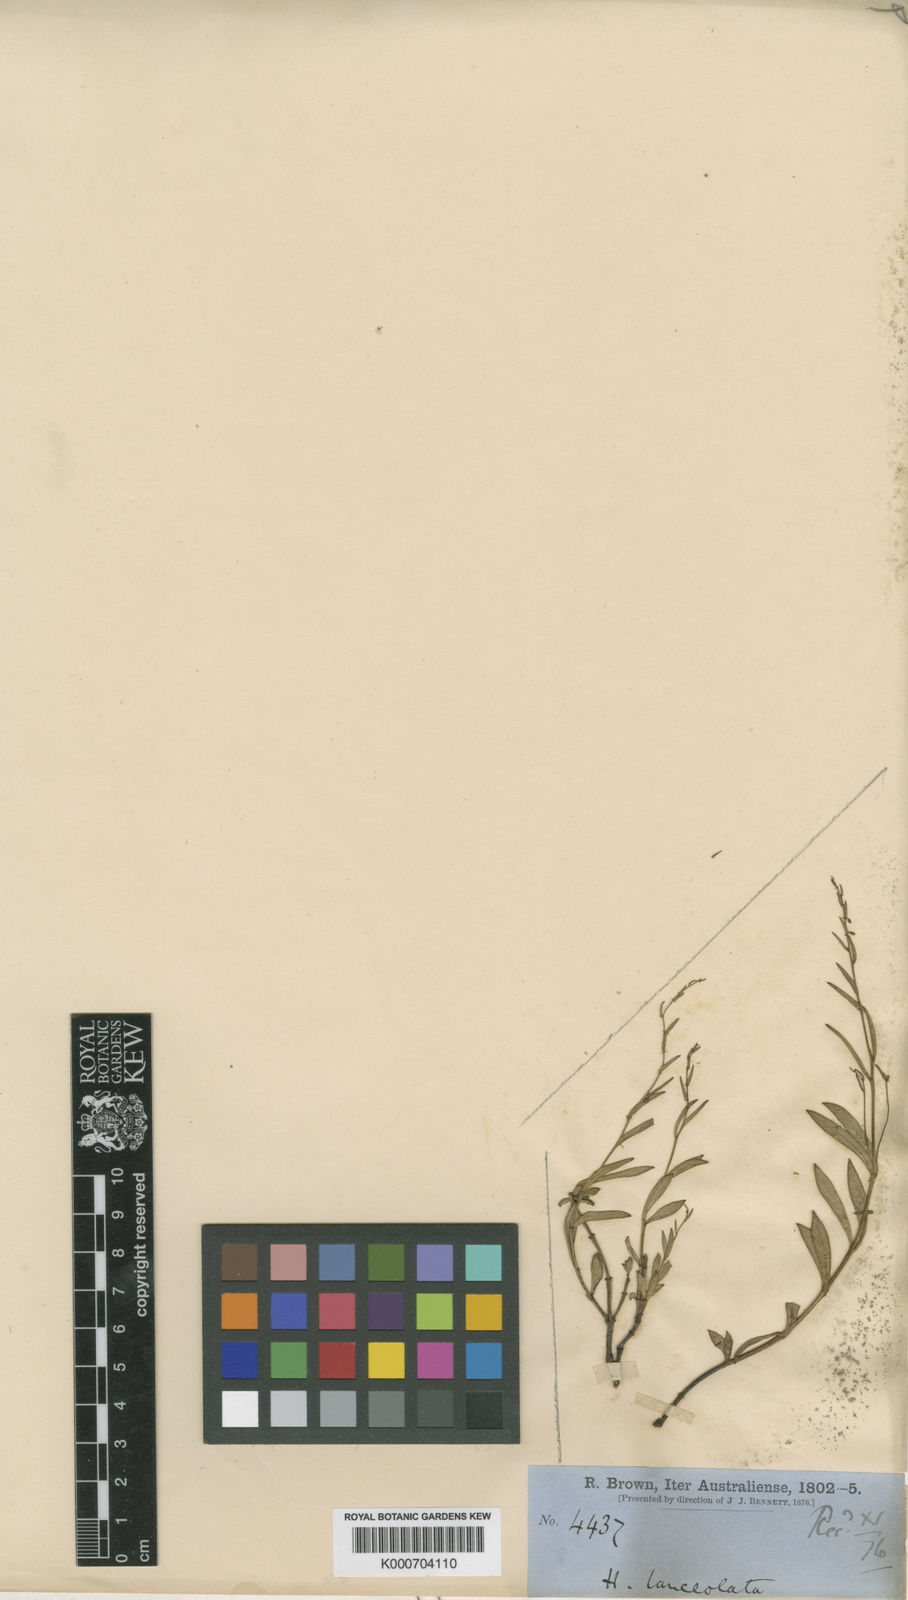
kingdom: Plantae
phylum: Tracheophyta
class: Magnoliopsida
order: Saxifragales
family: Haloragaceae
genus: Trihaloragis
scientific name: Trihaloragis hexandra
